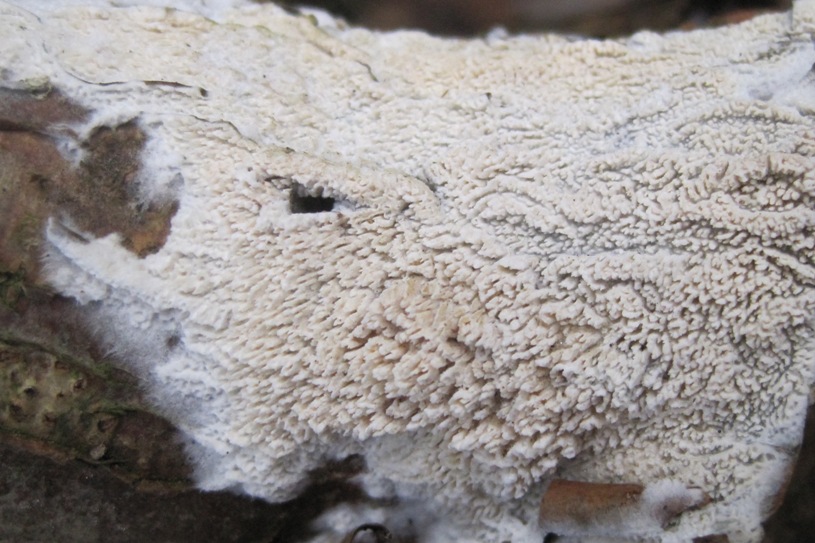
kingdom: Fungi
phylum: Basidiomycota
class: Agaricomycetes
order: Hymenochaetales
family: Schizoporaceae
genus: Schizopora
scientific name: Schizopora paradoxa
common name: hvid tandsvamp
